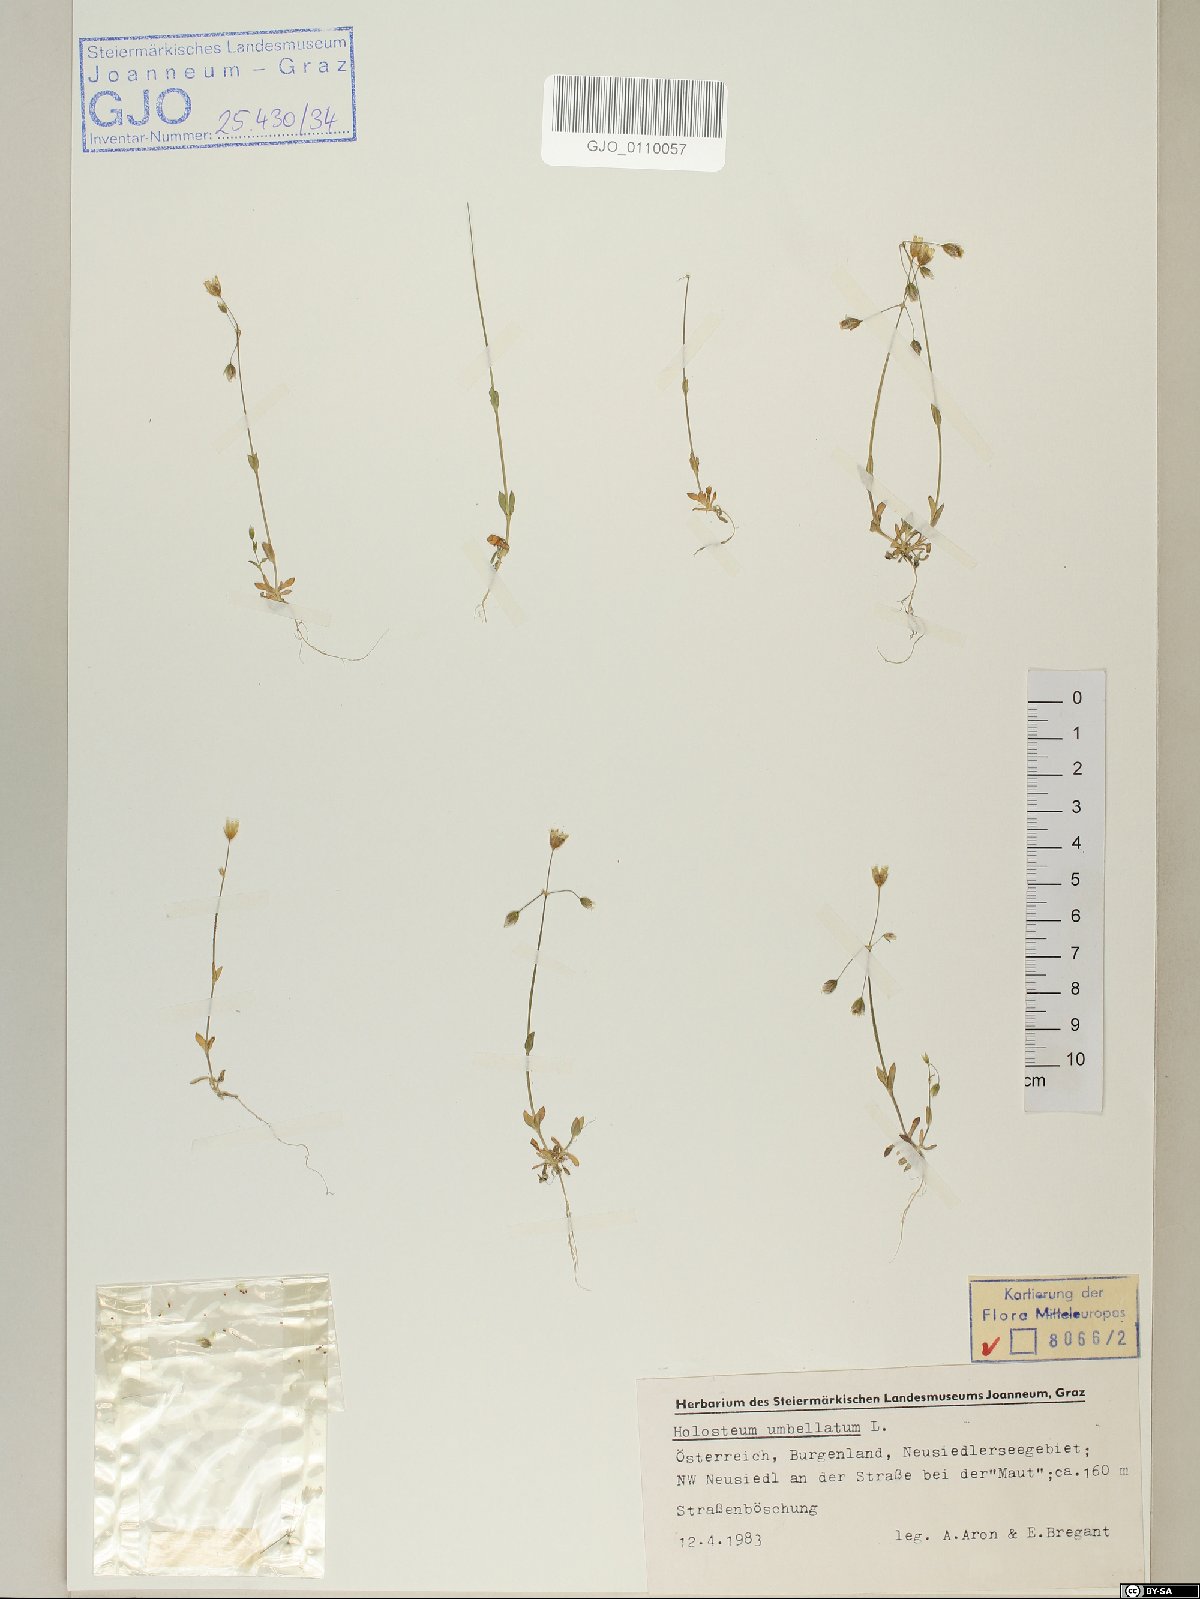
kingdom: Plantae
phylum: Tracheophyta
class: Magnoliopsida
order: Caryophyllales
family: Caryophyllaceae
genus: Holosteum
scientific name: Holosteum umbellatum
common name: Jagged chickweed
